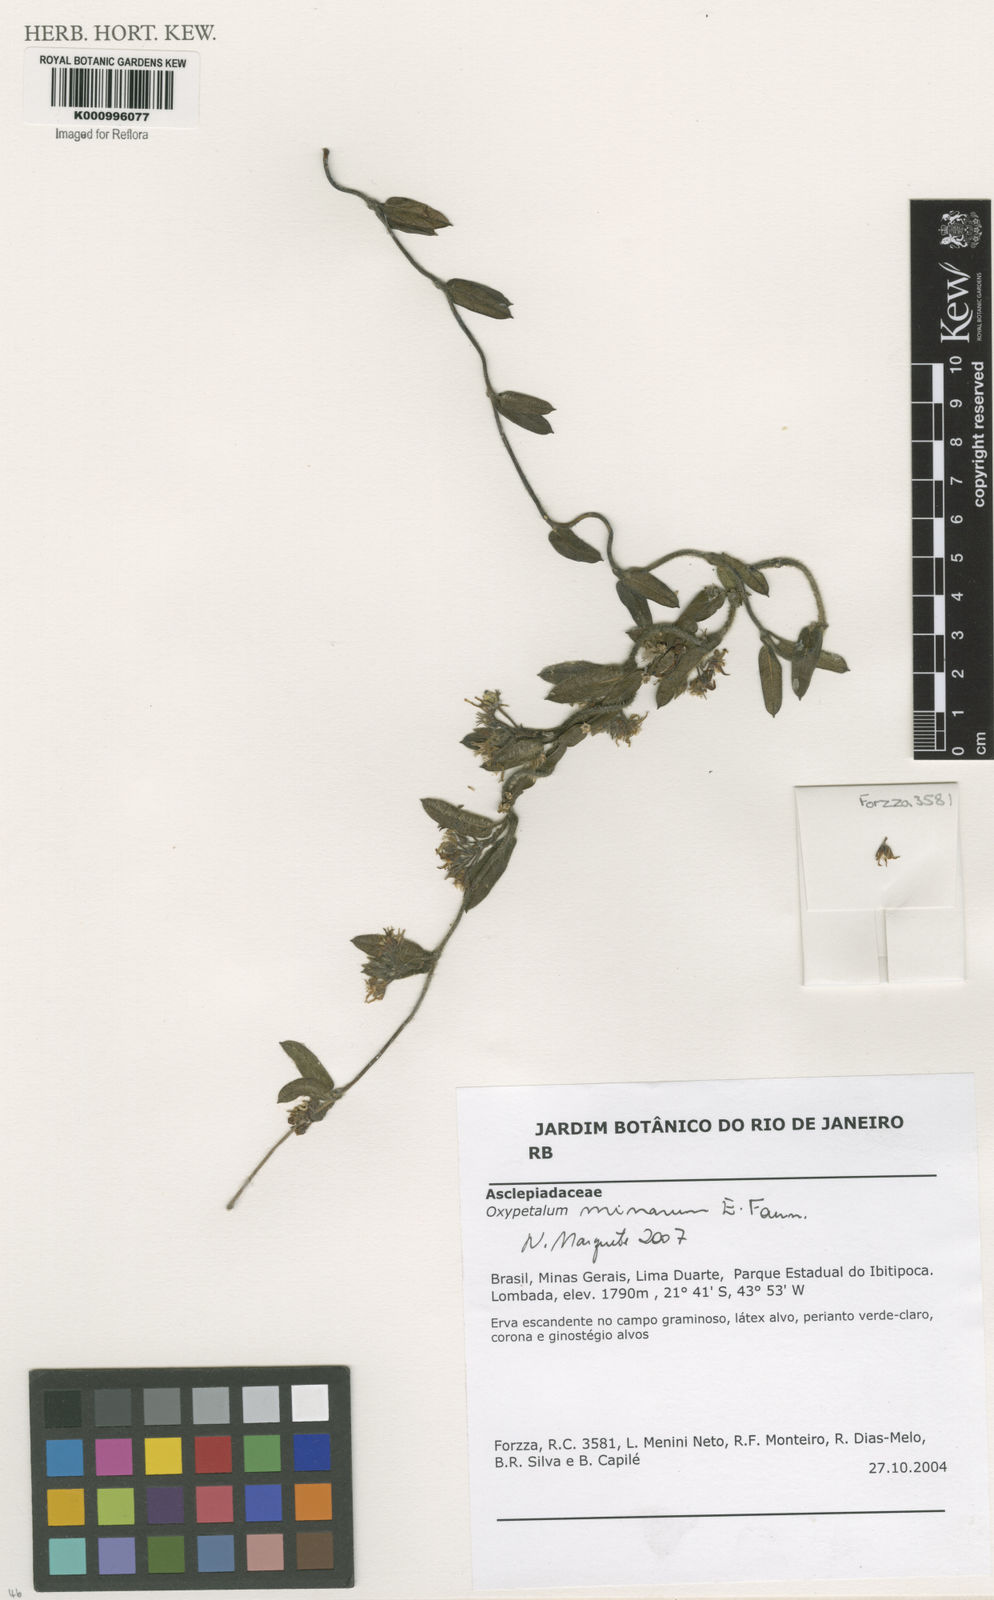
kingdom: Plantae
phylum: Tracheophyta
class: Magnoliopsida
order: Gentianales
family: Apocynaceae
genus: Oxypetalum
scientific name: Oxypetalum minarum
